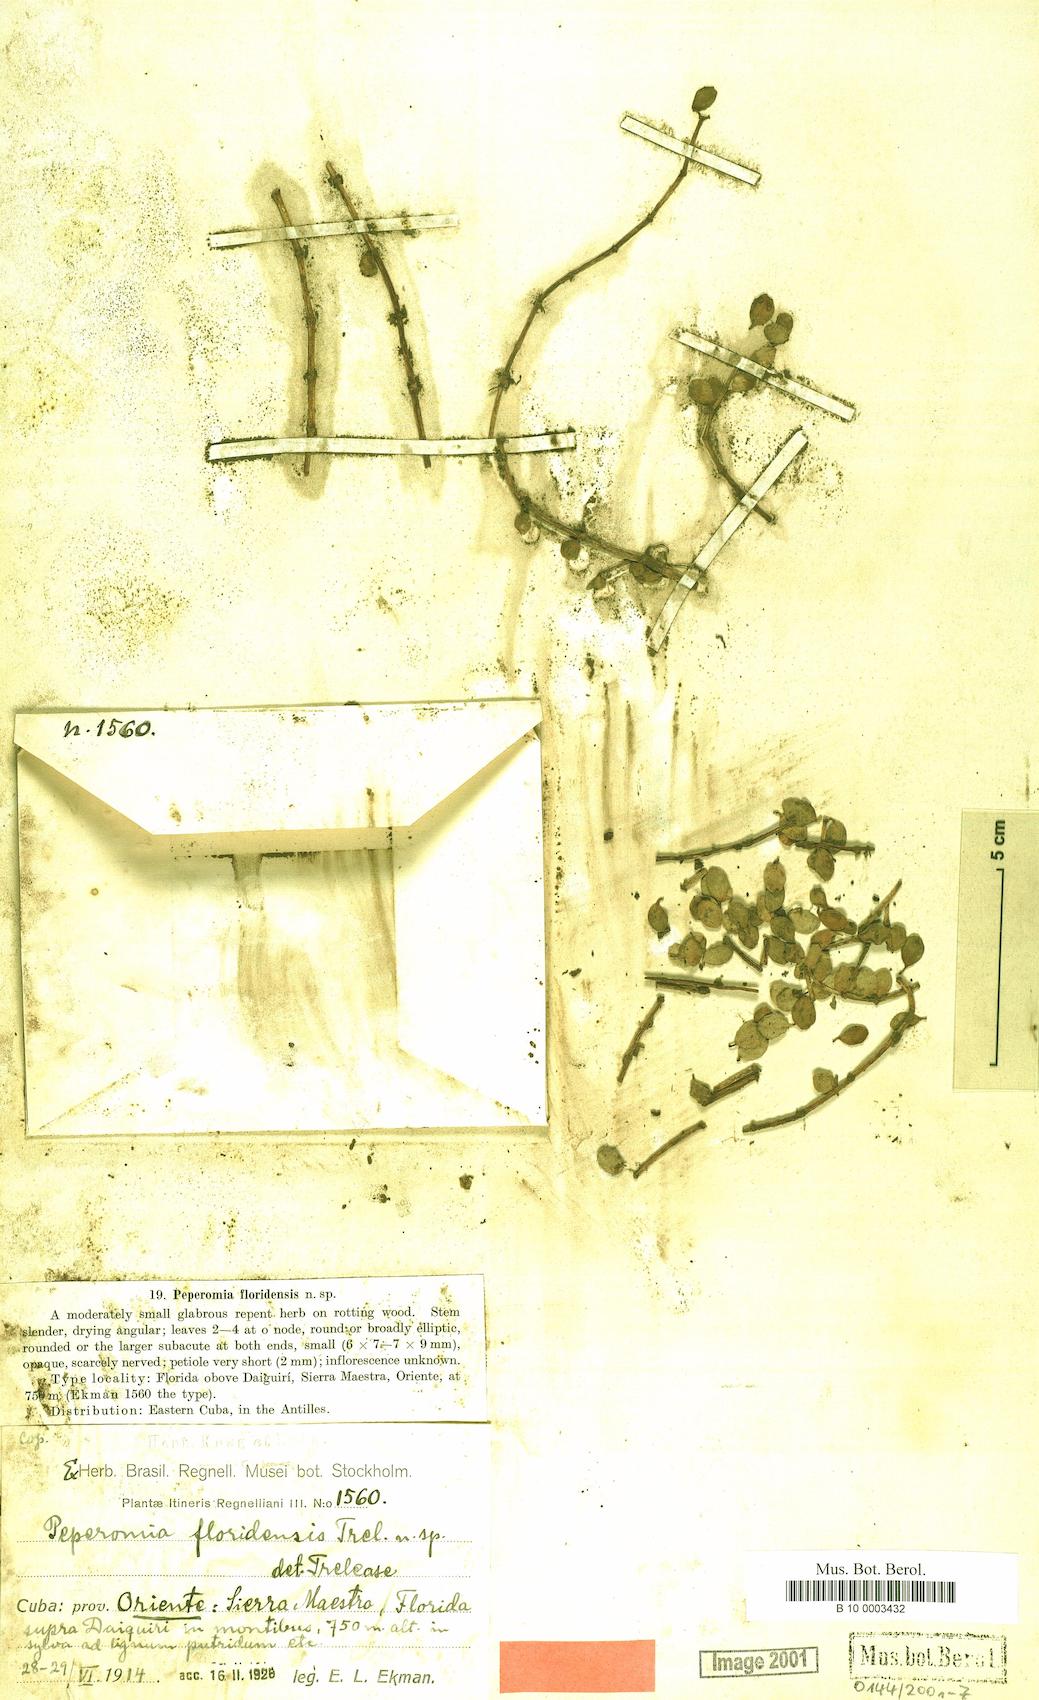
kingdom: Plantae
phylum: Tracheophyta
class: Magnoliopsida
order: Piperales
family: Piperaceae
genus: Peperomia
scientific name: Peperomia grisebachii
